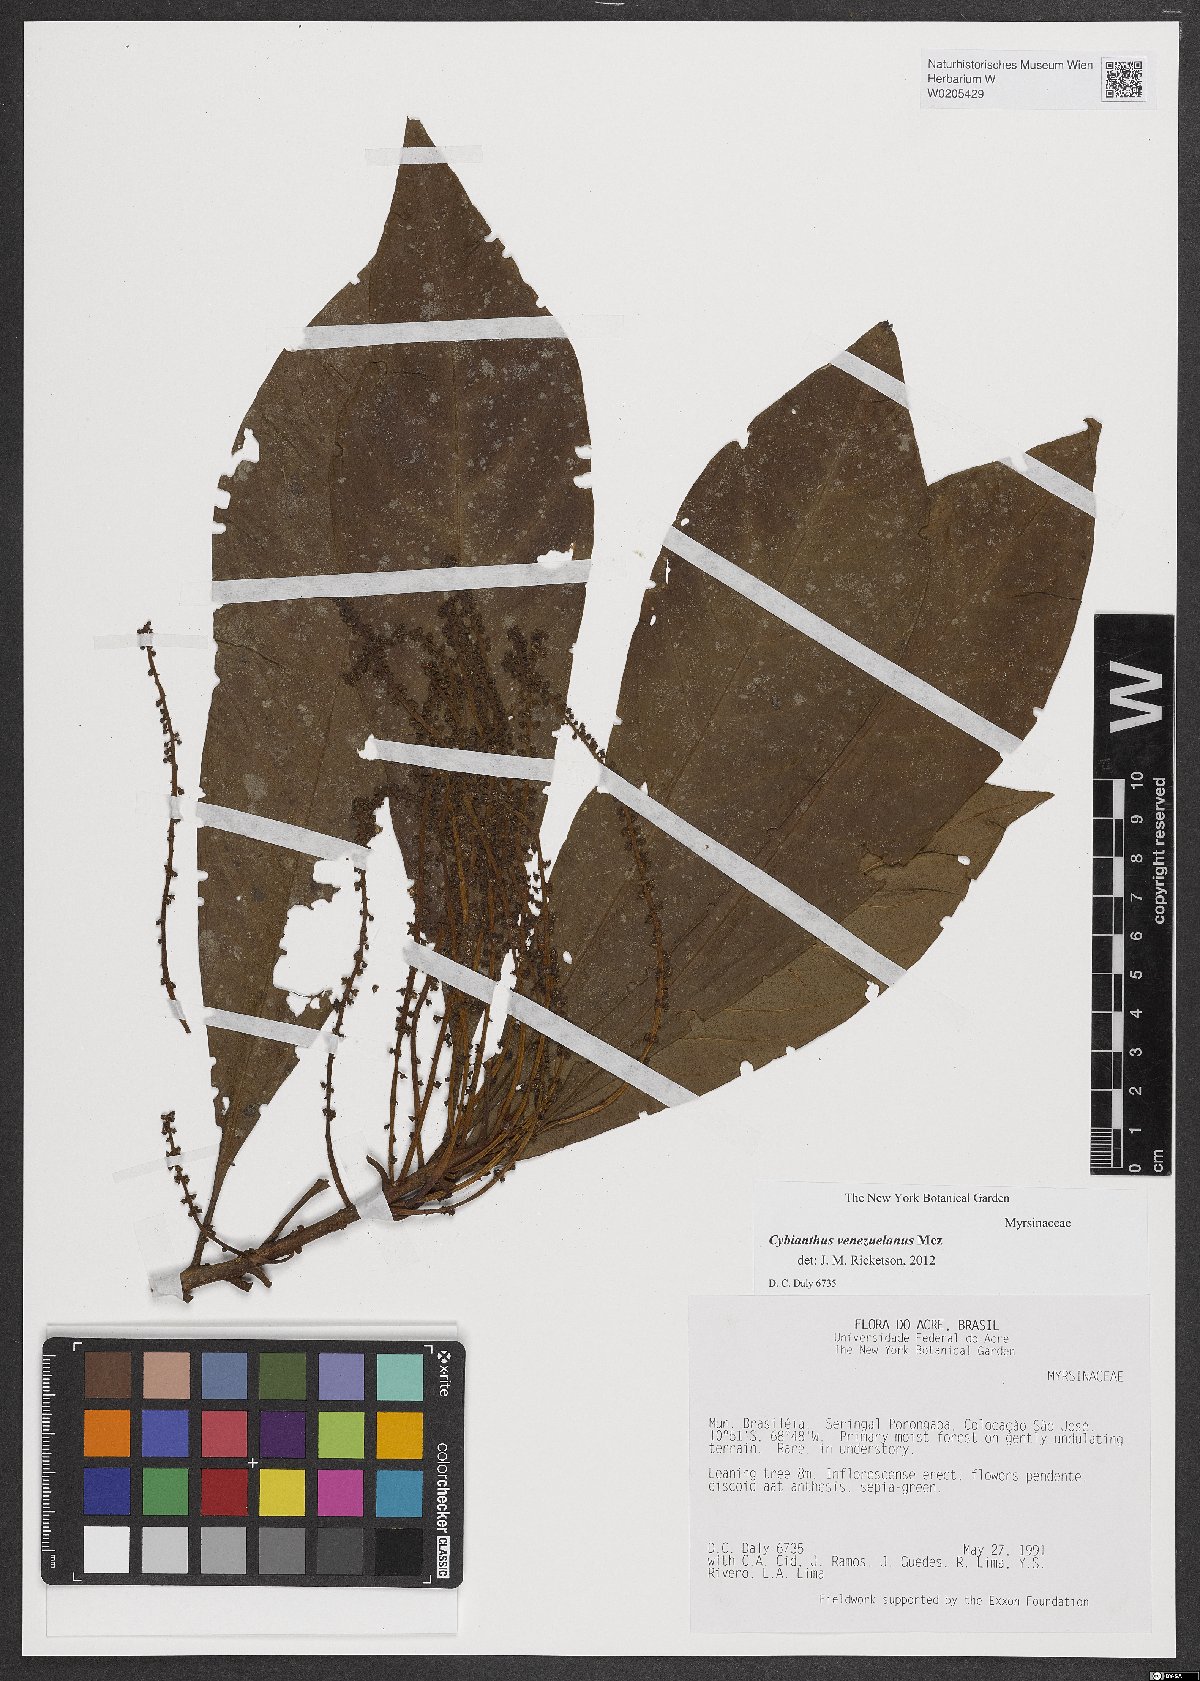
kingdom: Plantae
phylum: Tracheophyta
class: Magnoliopsida
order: Ericales
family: Primulaceae
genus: Cybianthus
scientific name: Cybianthus venezuelanus
